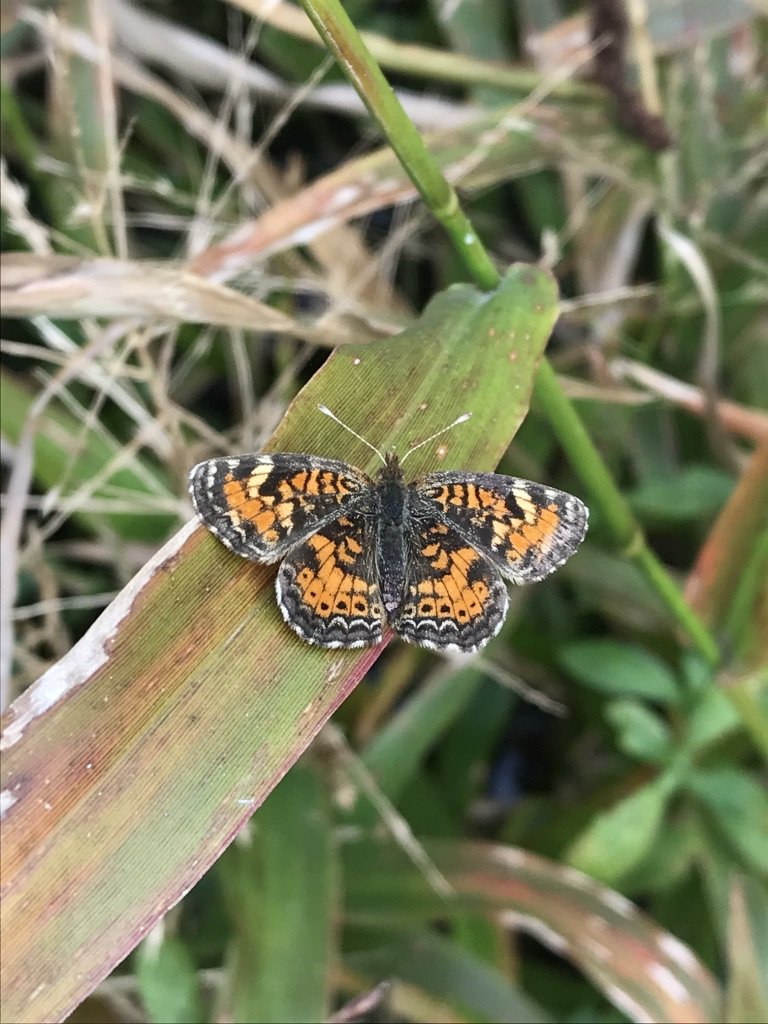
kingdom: Animalia
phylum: Arthropoda
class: Insecta
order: Lepidoptera
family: Nymphalidae
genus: Phyciodes
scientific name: Phyciodes phaon
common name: Phaon Crescent
